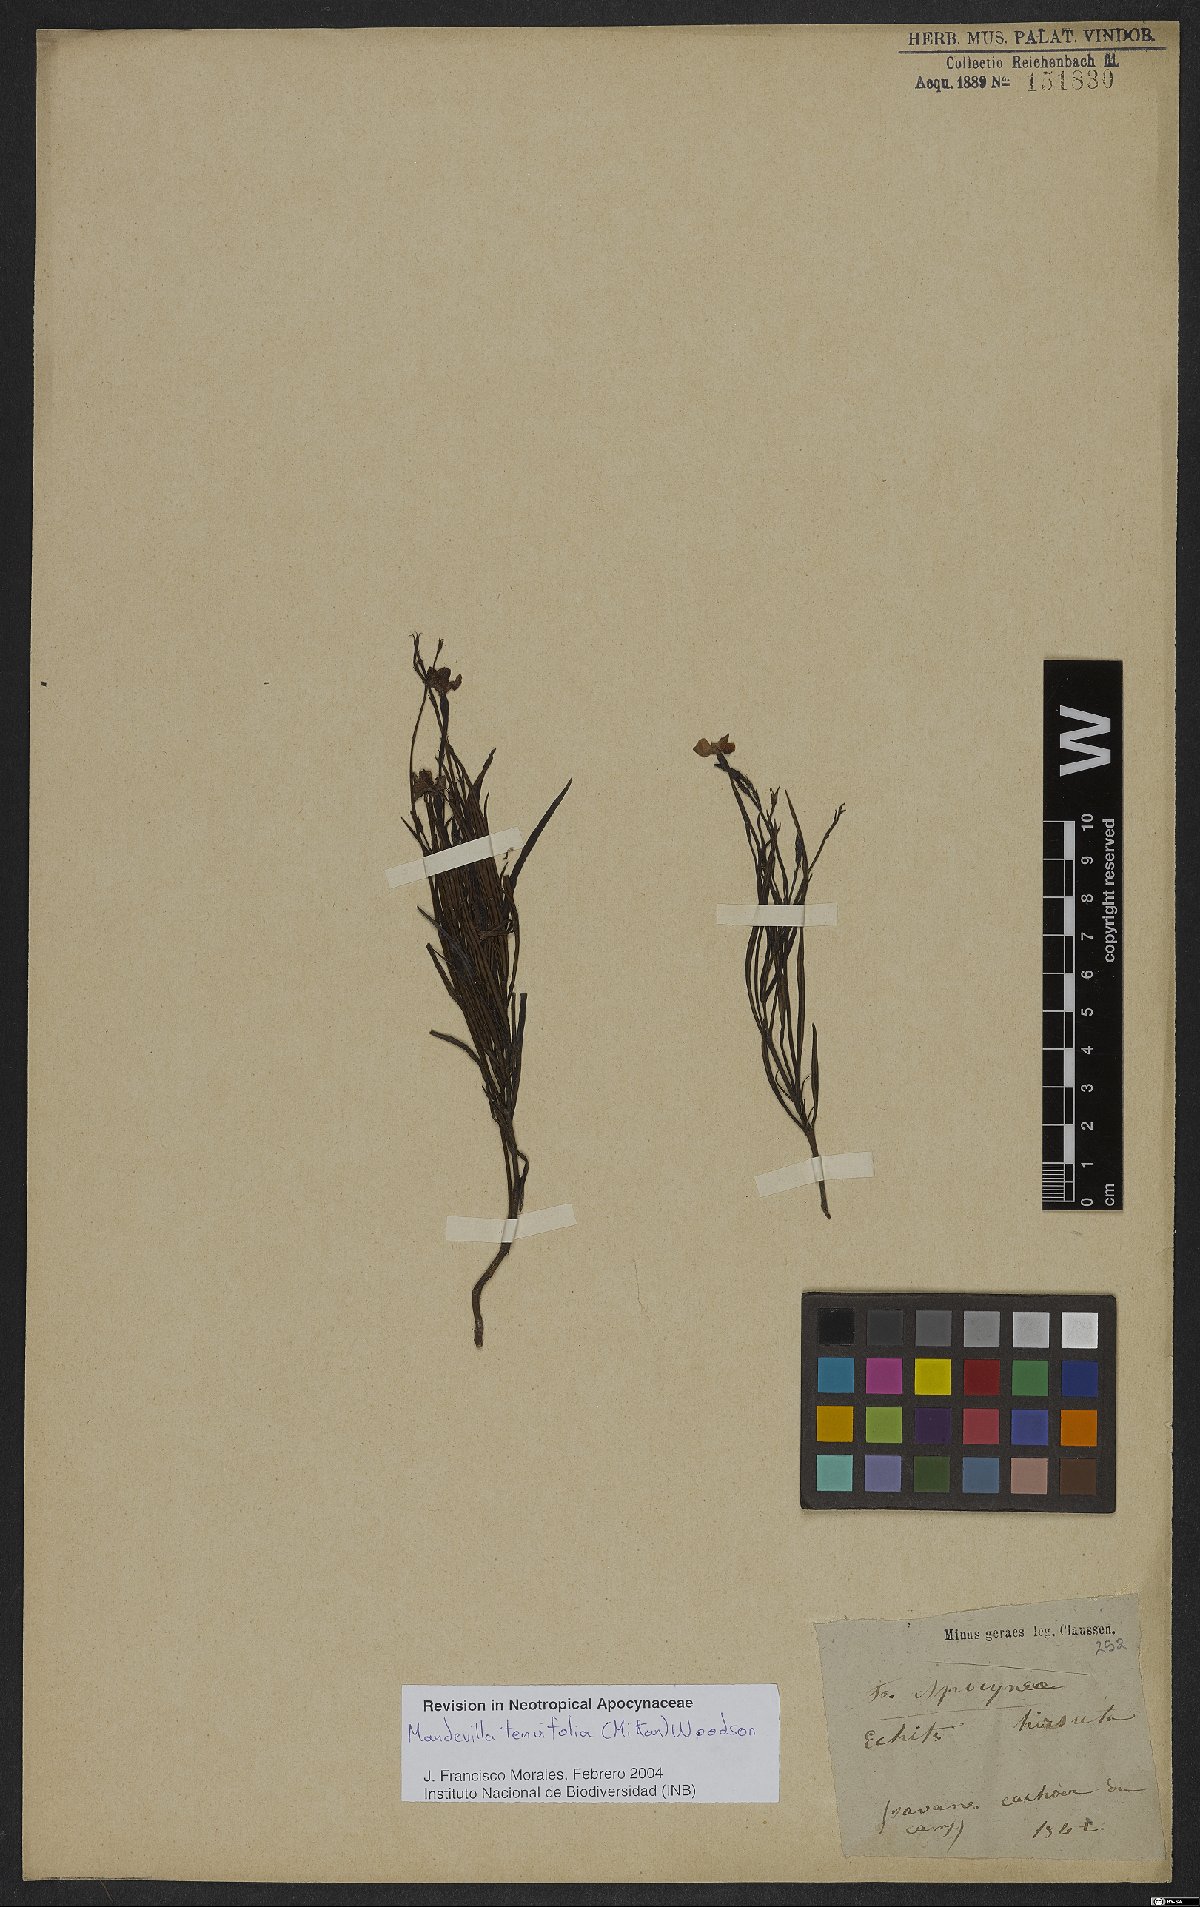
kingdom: Plantae
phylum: Tracheophyta
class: Magnoliopsida
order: Gentianales
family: Apocynaceae
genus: Mandevilla
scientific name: Mandevilla tenuifolia
